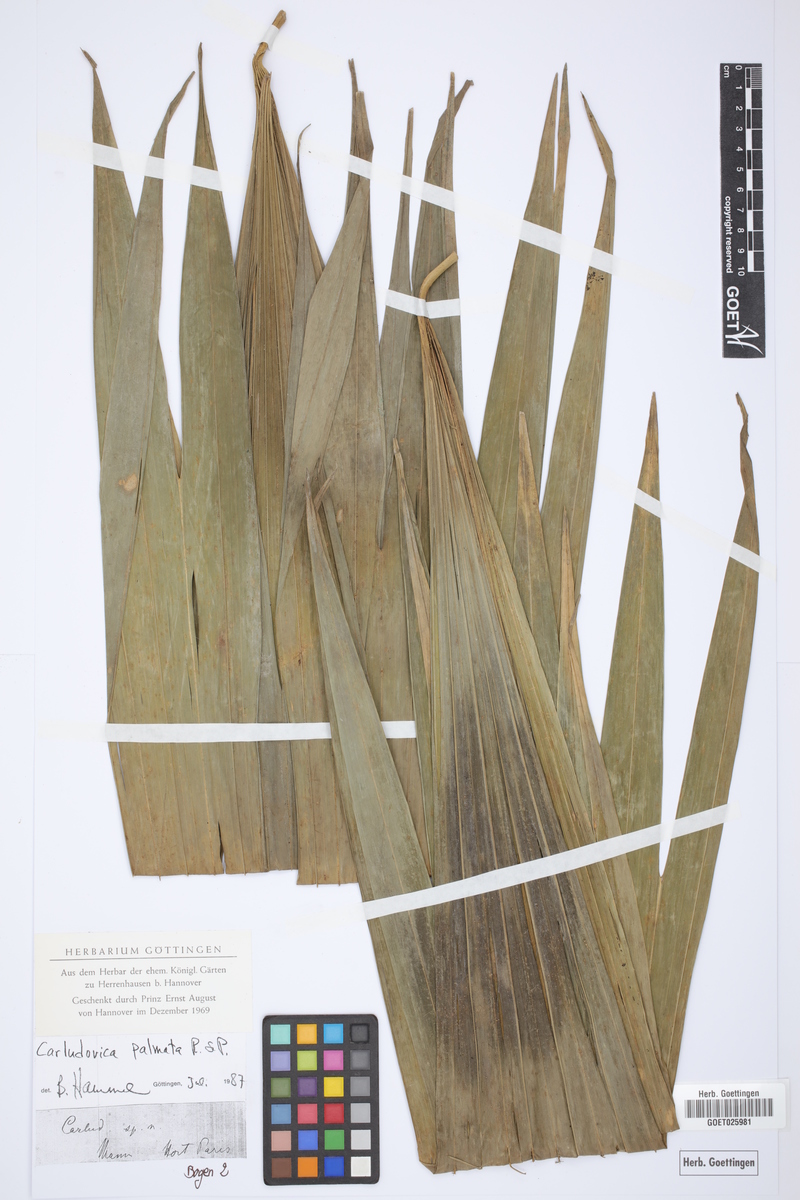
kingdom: Plantae
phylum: Tracheophyta
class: Liliopsida
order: Pandanales
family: Cyclanthaceae
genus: Carludovica
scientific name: Carludovica palmata
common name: Panama hat plant
